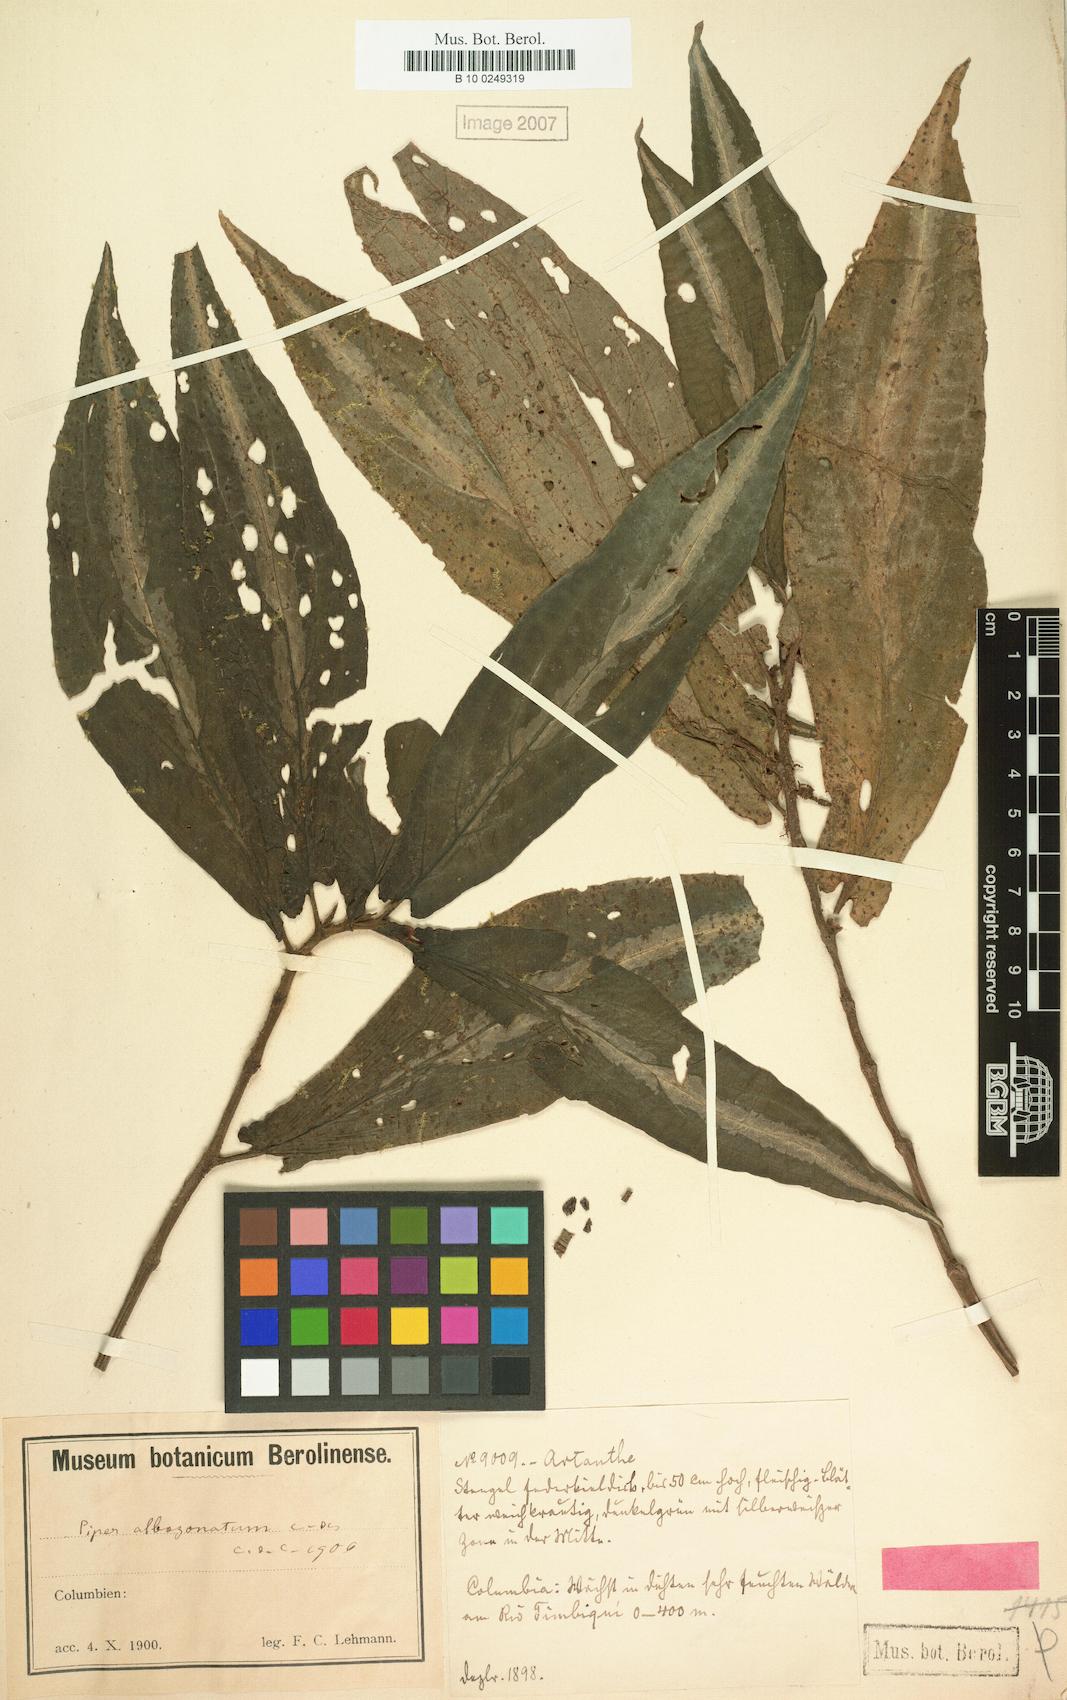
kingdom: Plantae
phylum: Tracheophyta
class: Magnoliopsida
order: Piperales
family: Piperaceae
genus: Piper
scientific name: Piper albozonatum
